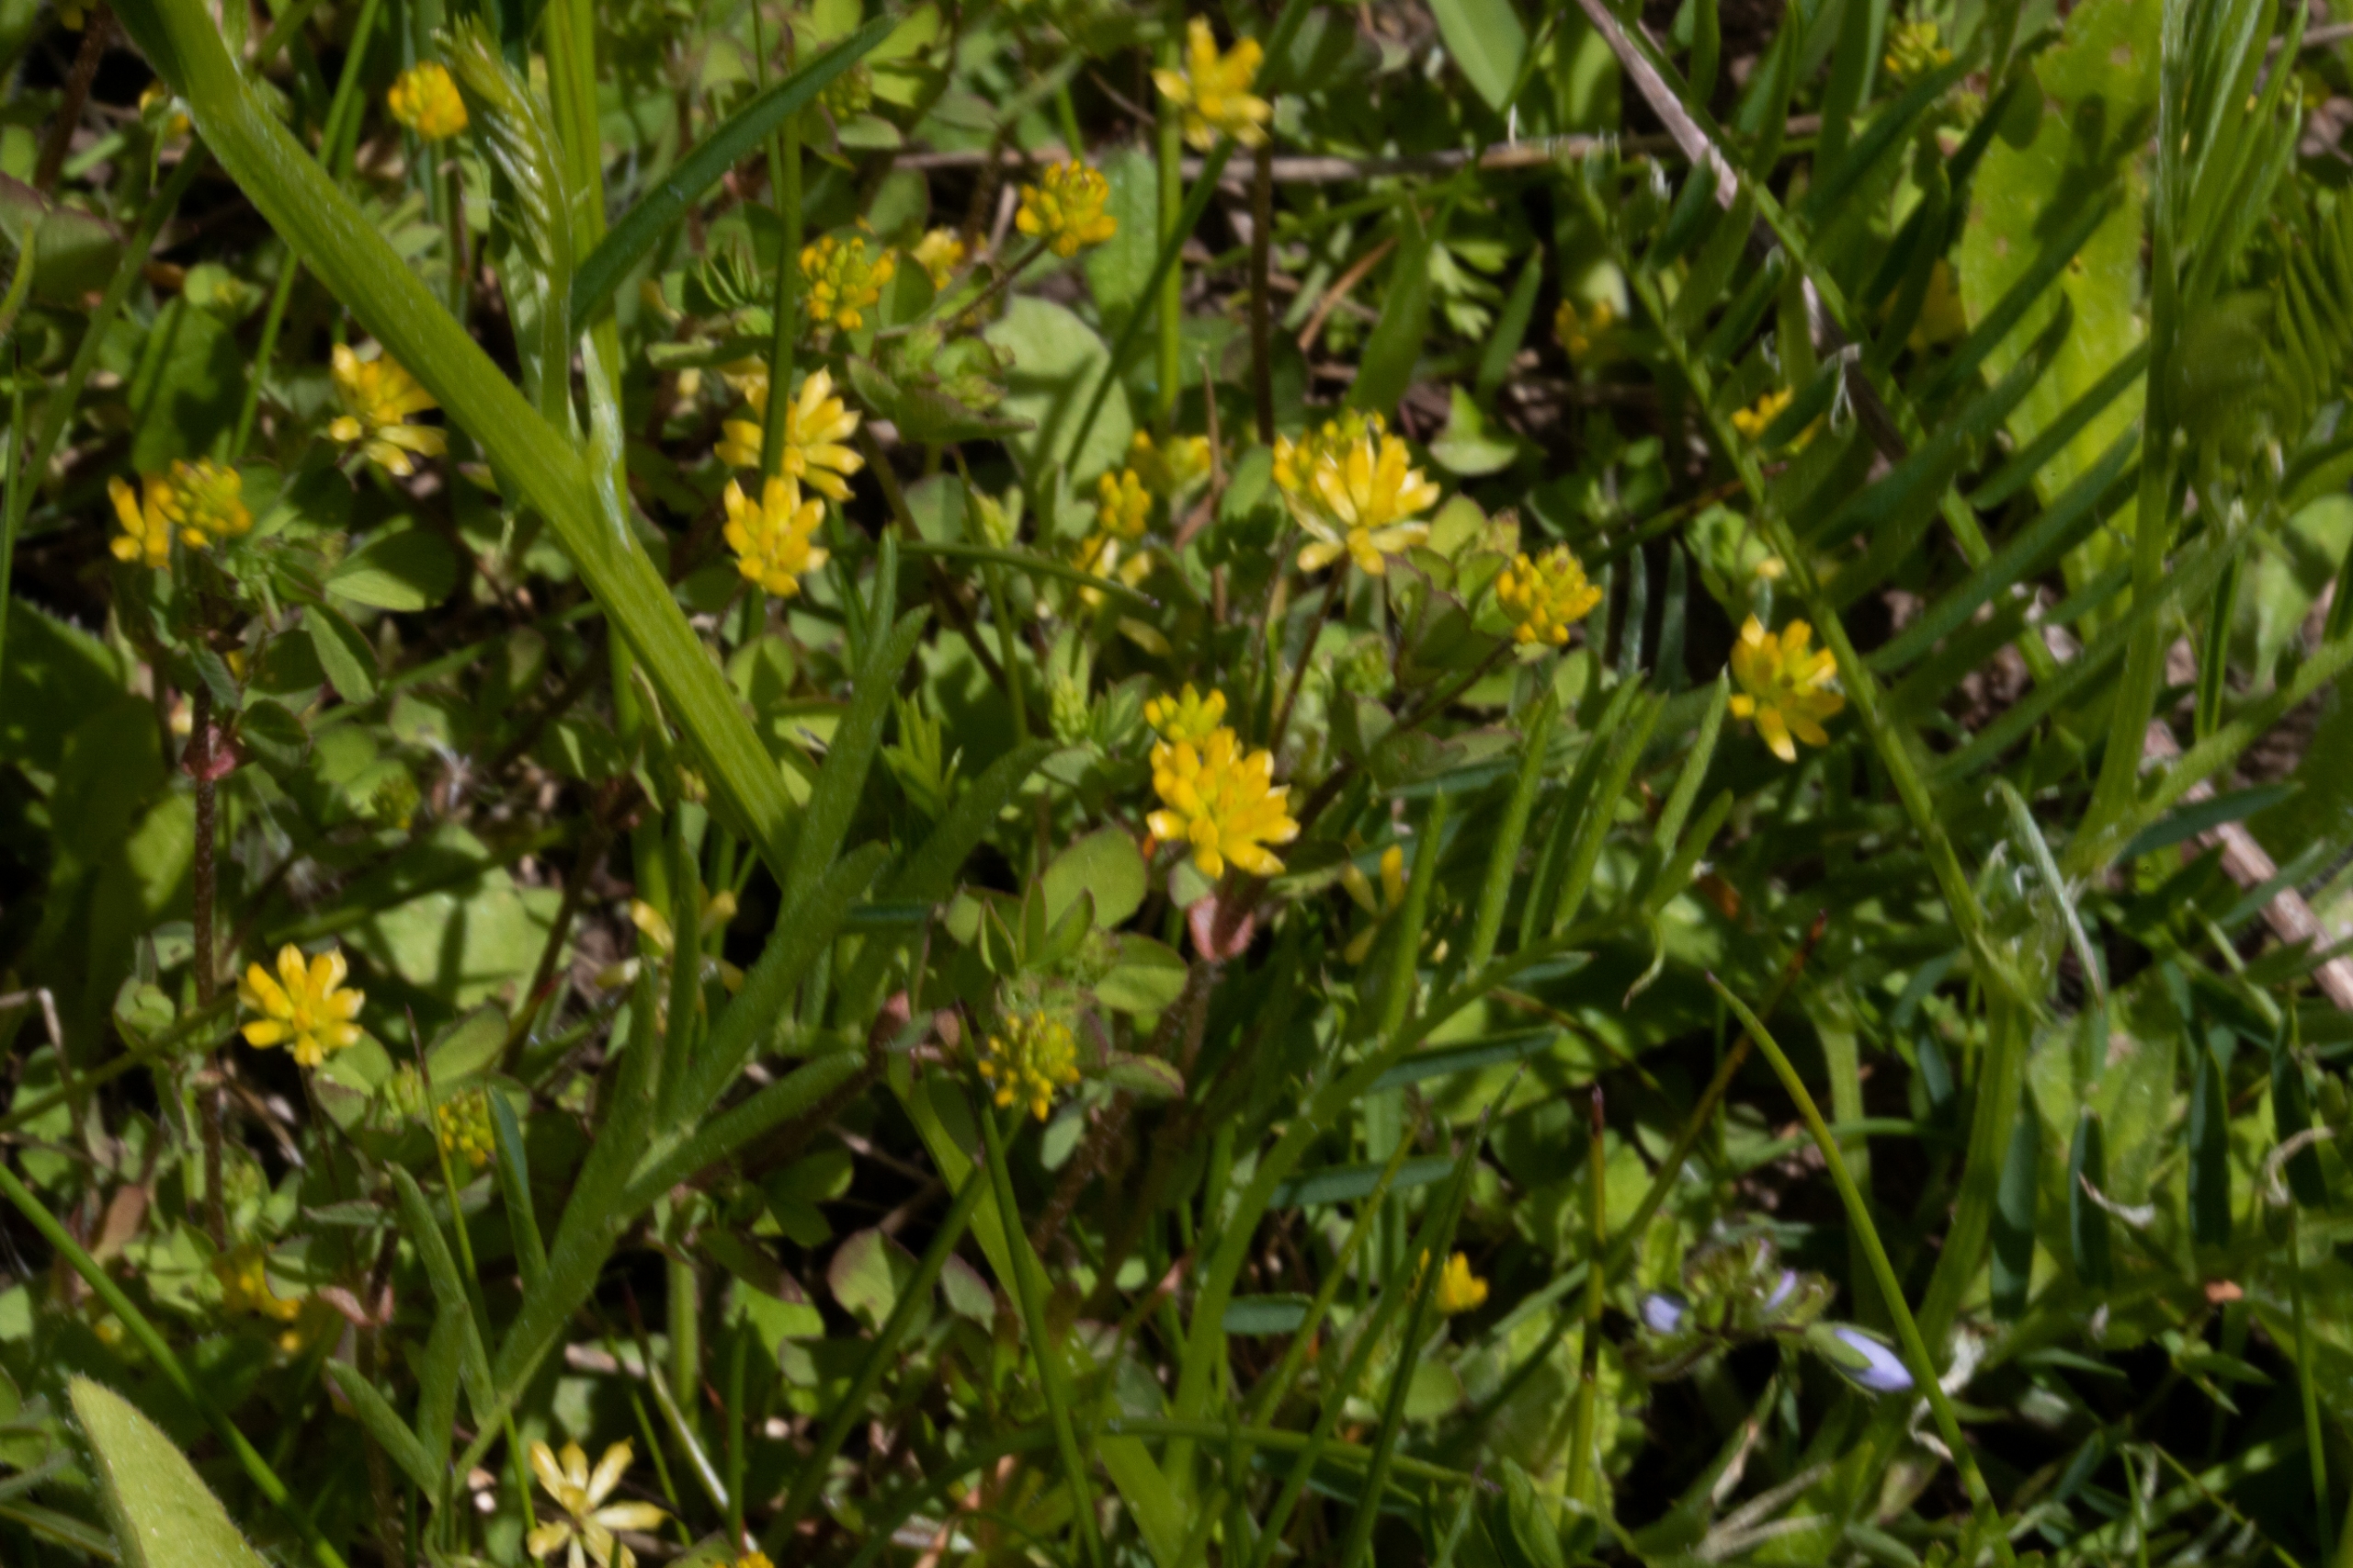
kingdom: Plantae
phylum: Tracheophyta
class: Magnoliopsida
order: Fabales
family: Fabaceae
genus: Medicago
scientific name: Medicago lupulina
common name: Humle-sneglebælg
